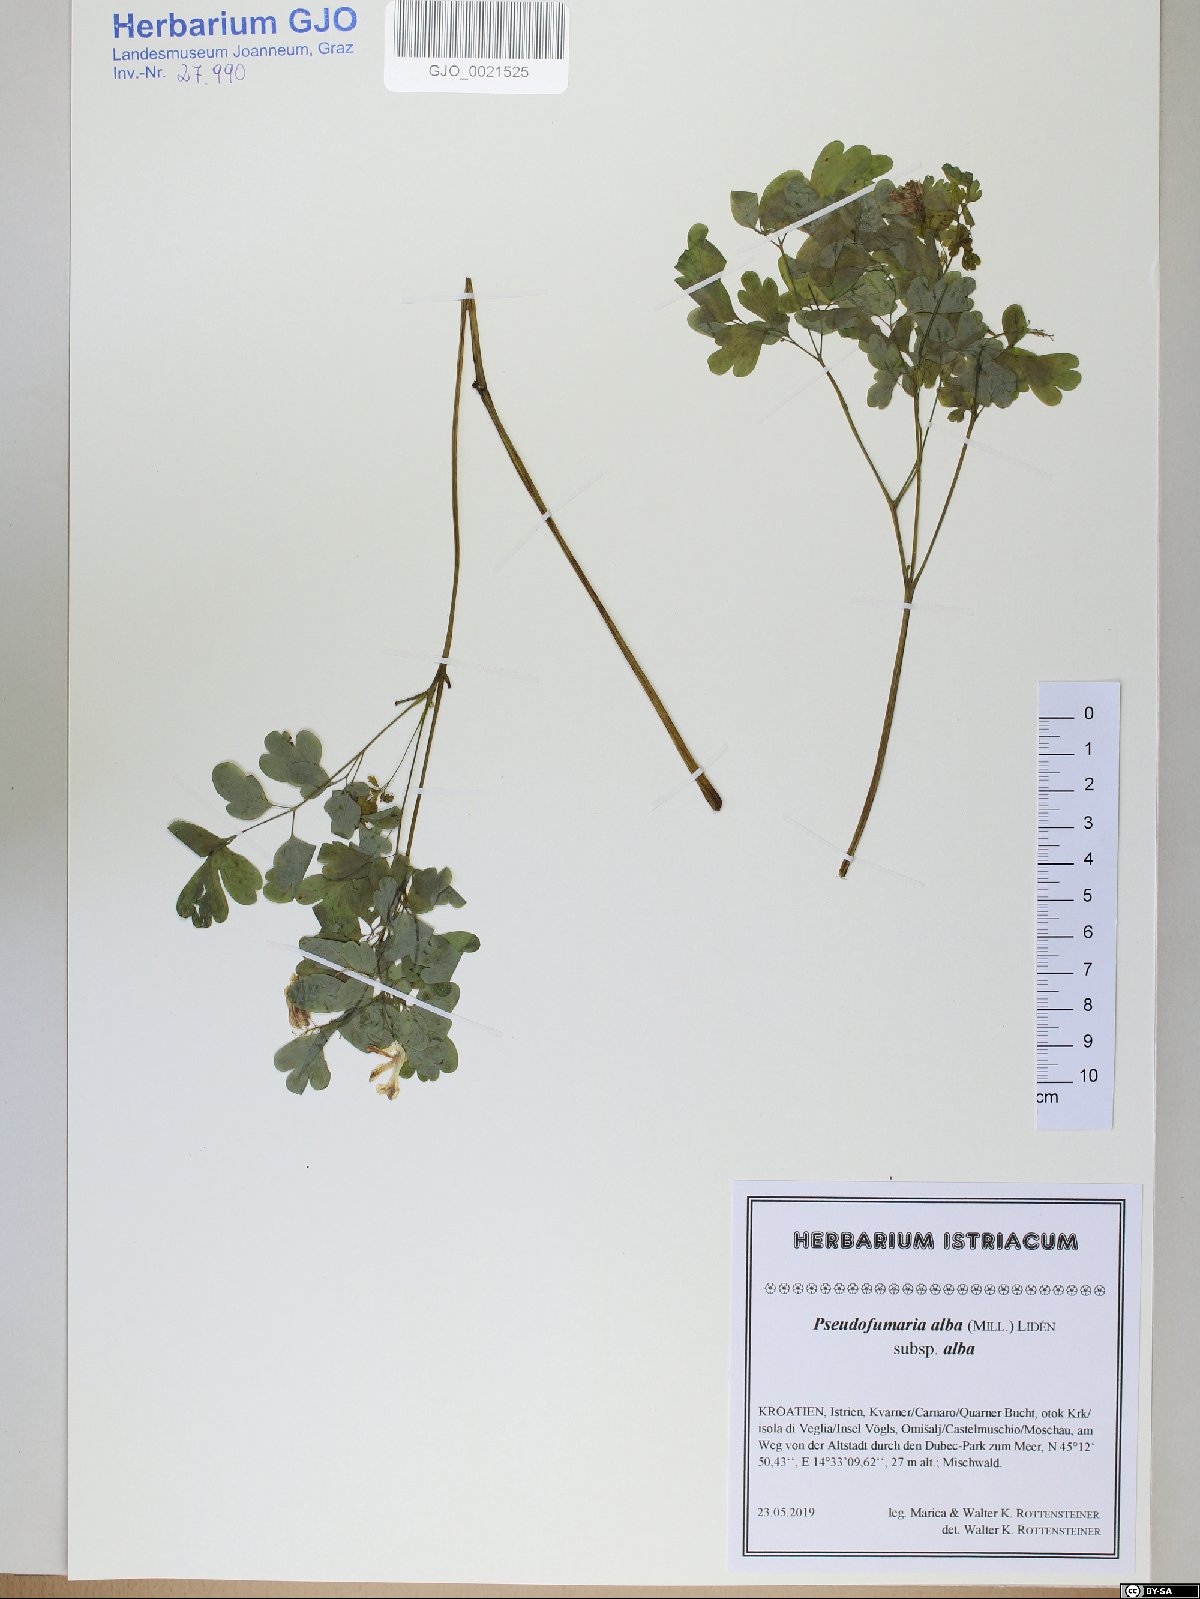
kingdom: Plantae
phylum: Tracheophyta
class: Magnoliopsida
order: Ranunculales
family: Papaveraceae
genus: Pseudofumaria
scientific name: Pseudofumaria alba
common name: Pale corydalis
